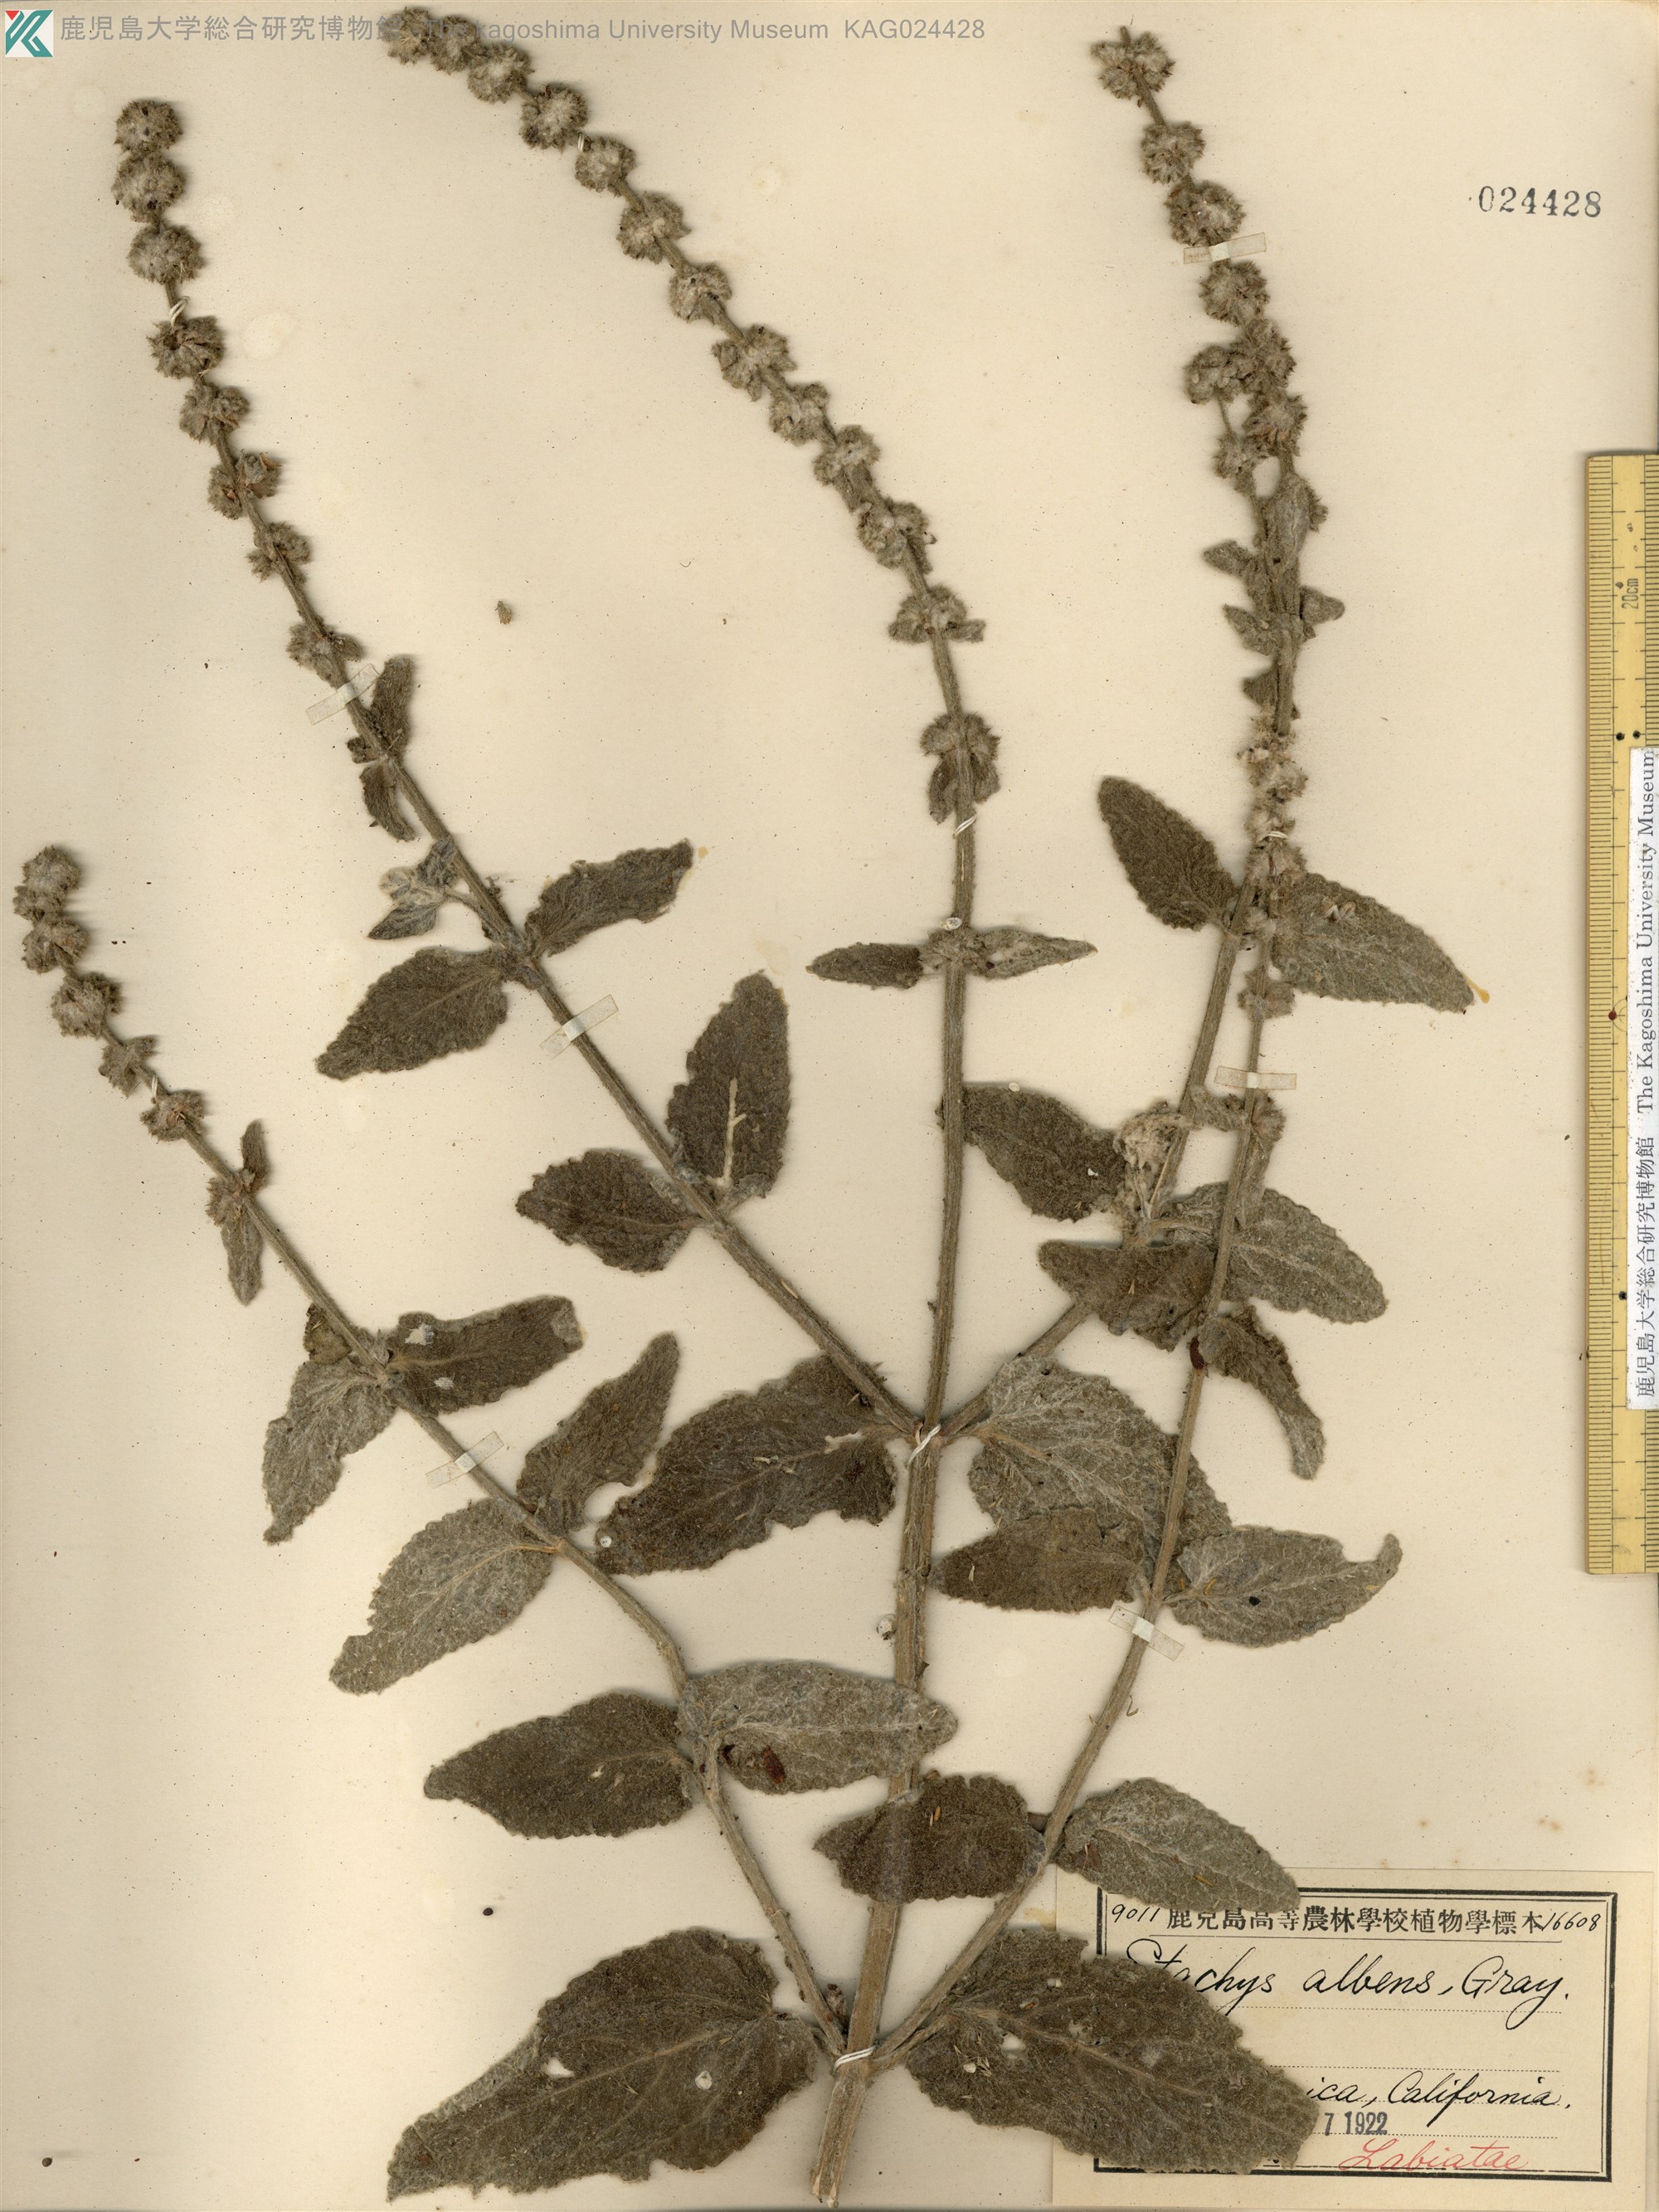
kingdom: Plantae
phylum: Tracheophyta
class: Magnoliopsida
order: Lamiales
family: Lamiaceae
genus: Stachys
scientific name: Stachys albens
